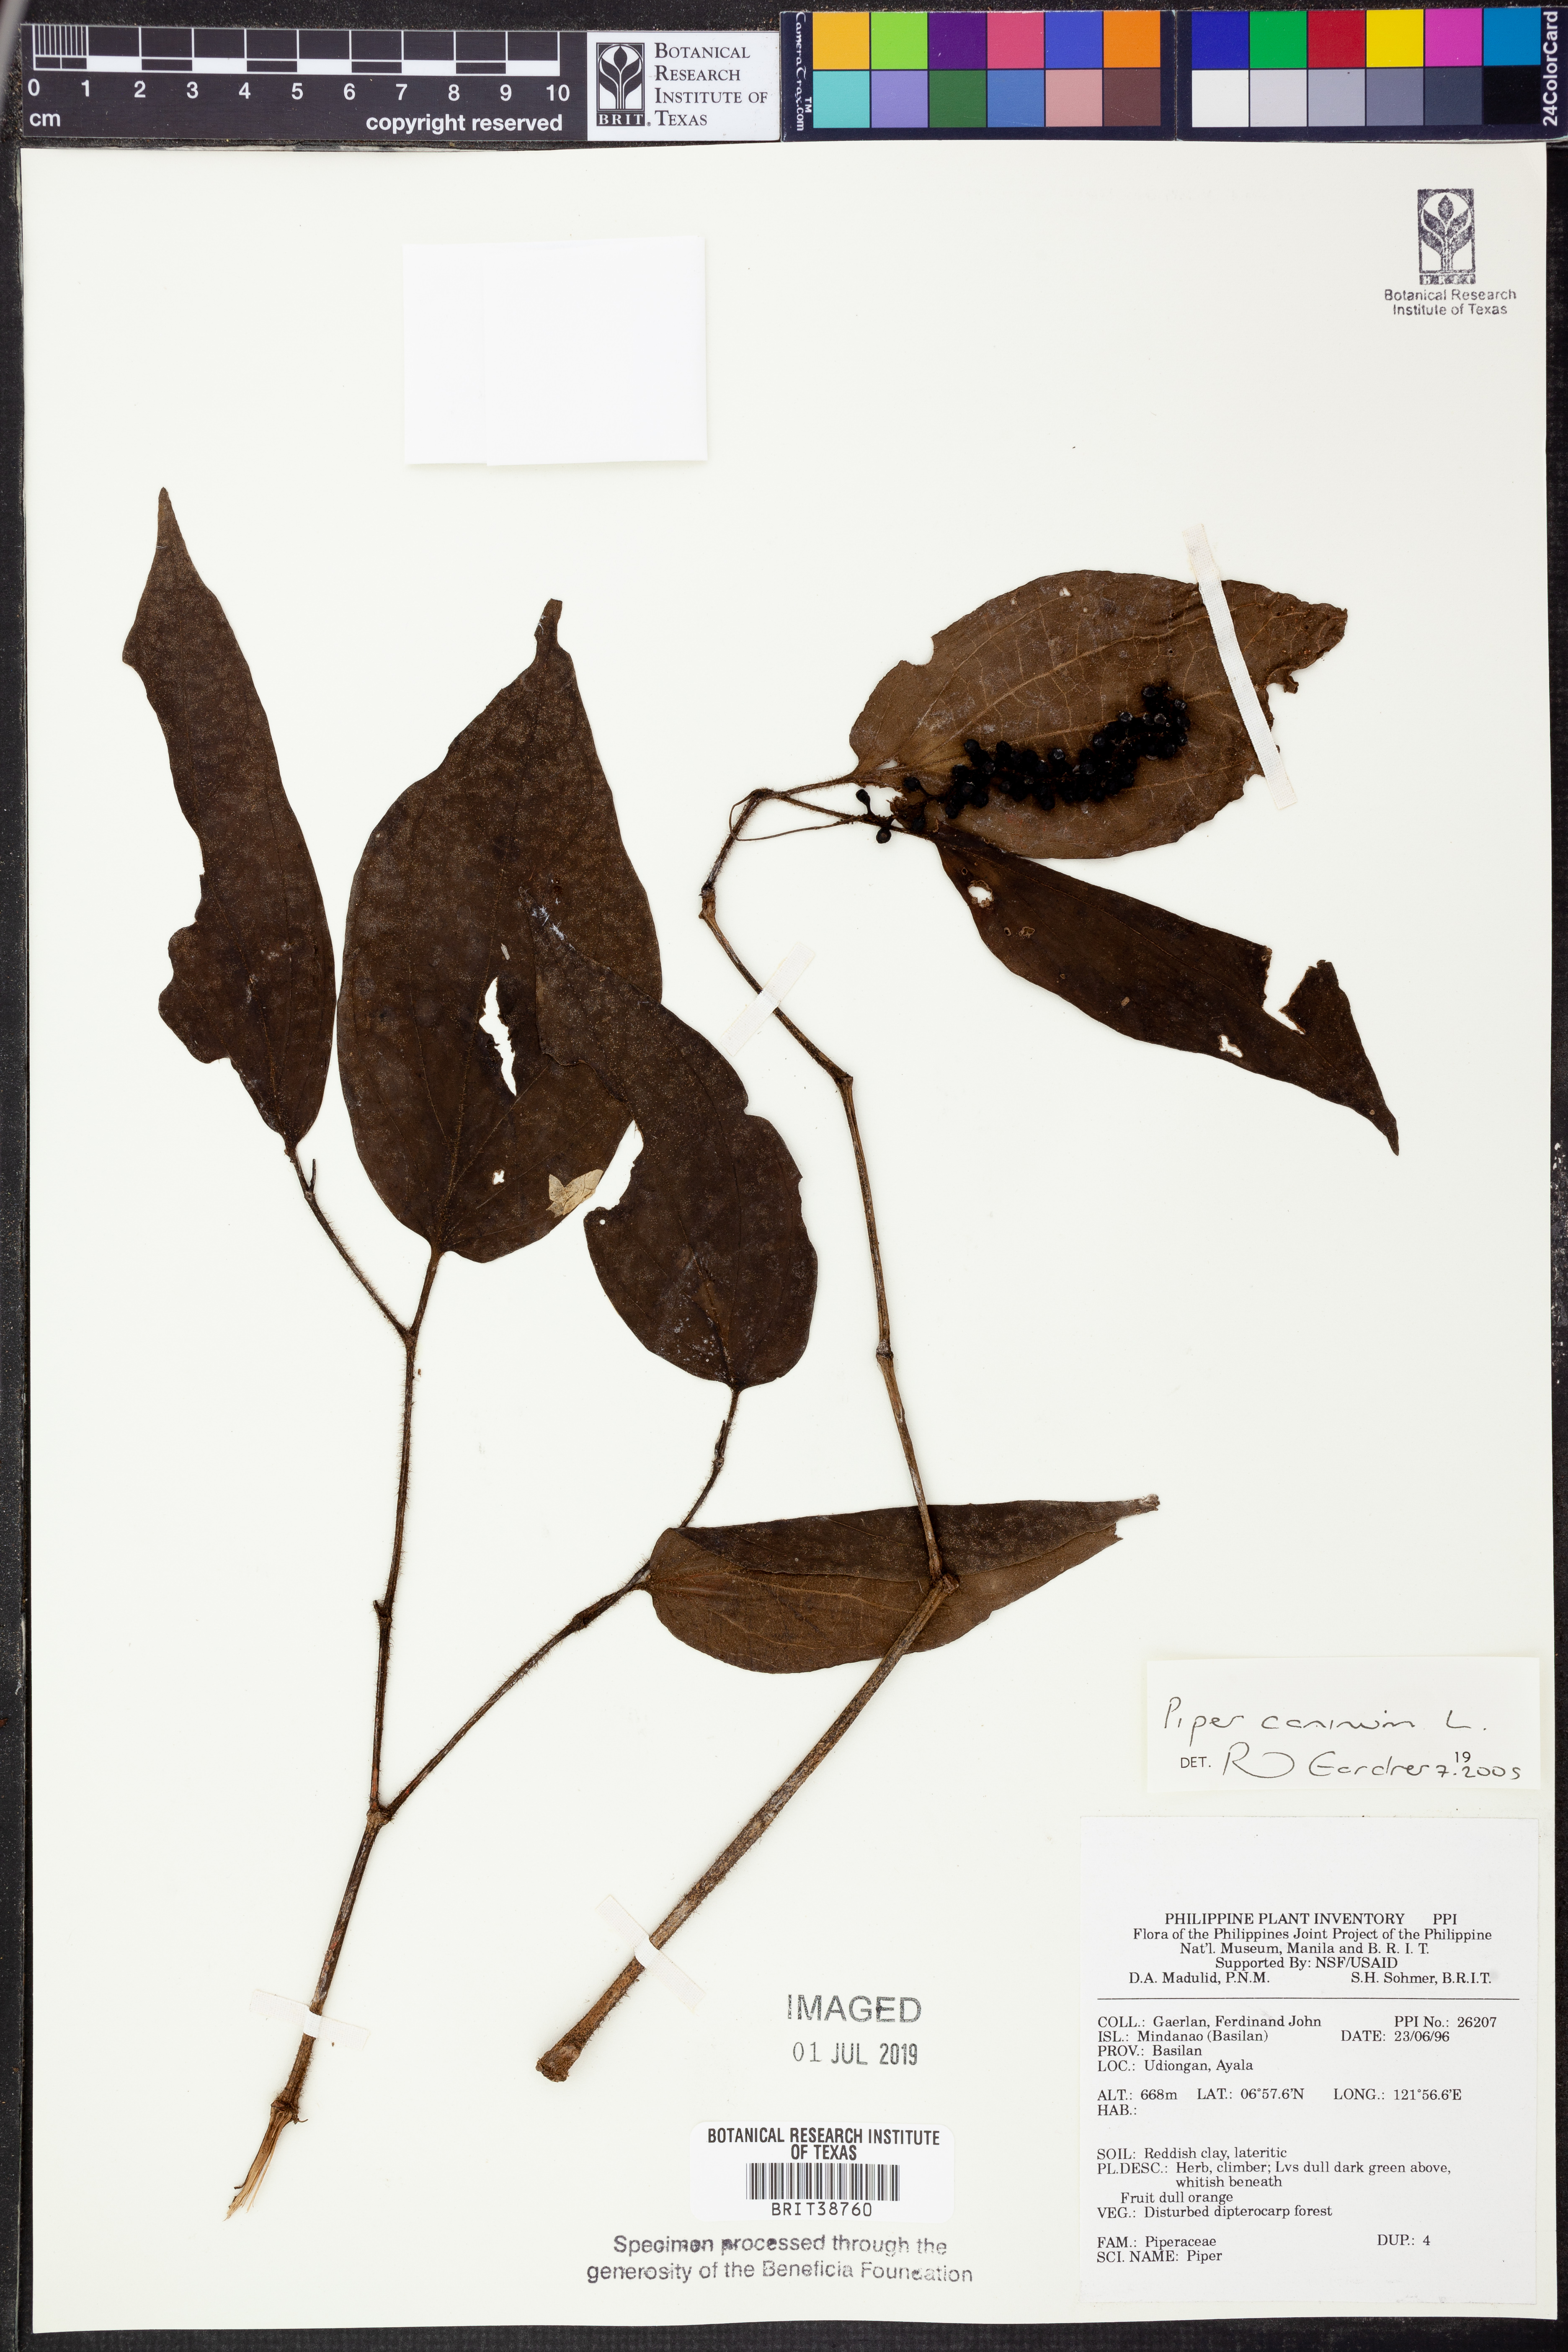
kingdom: Plantae
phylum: Tracheophyta
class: Magnoliopsida
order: Piperales
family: Piperaceae
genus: Piper
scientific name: Piper lanatum
